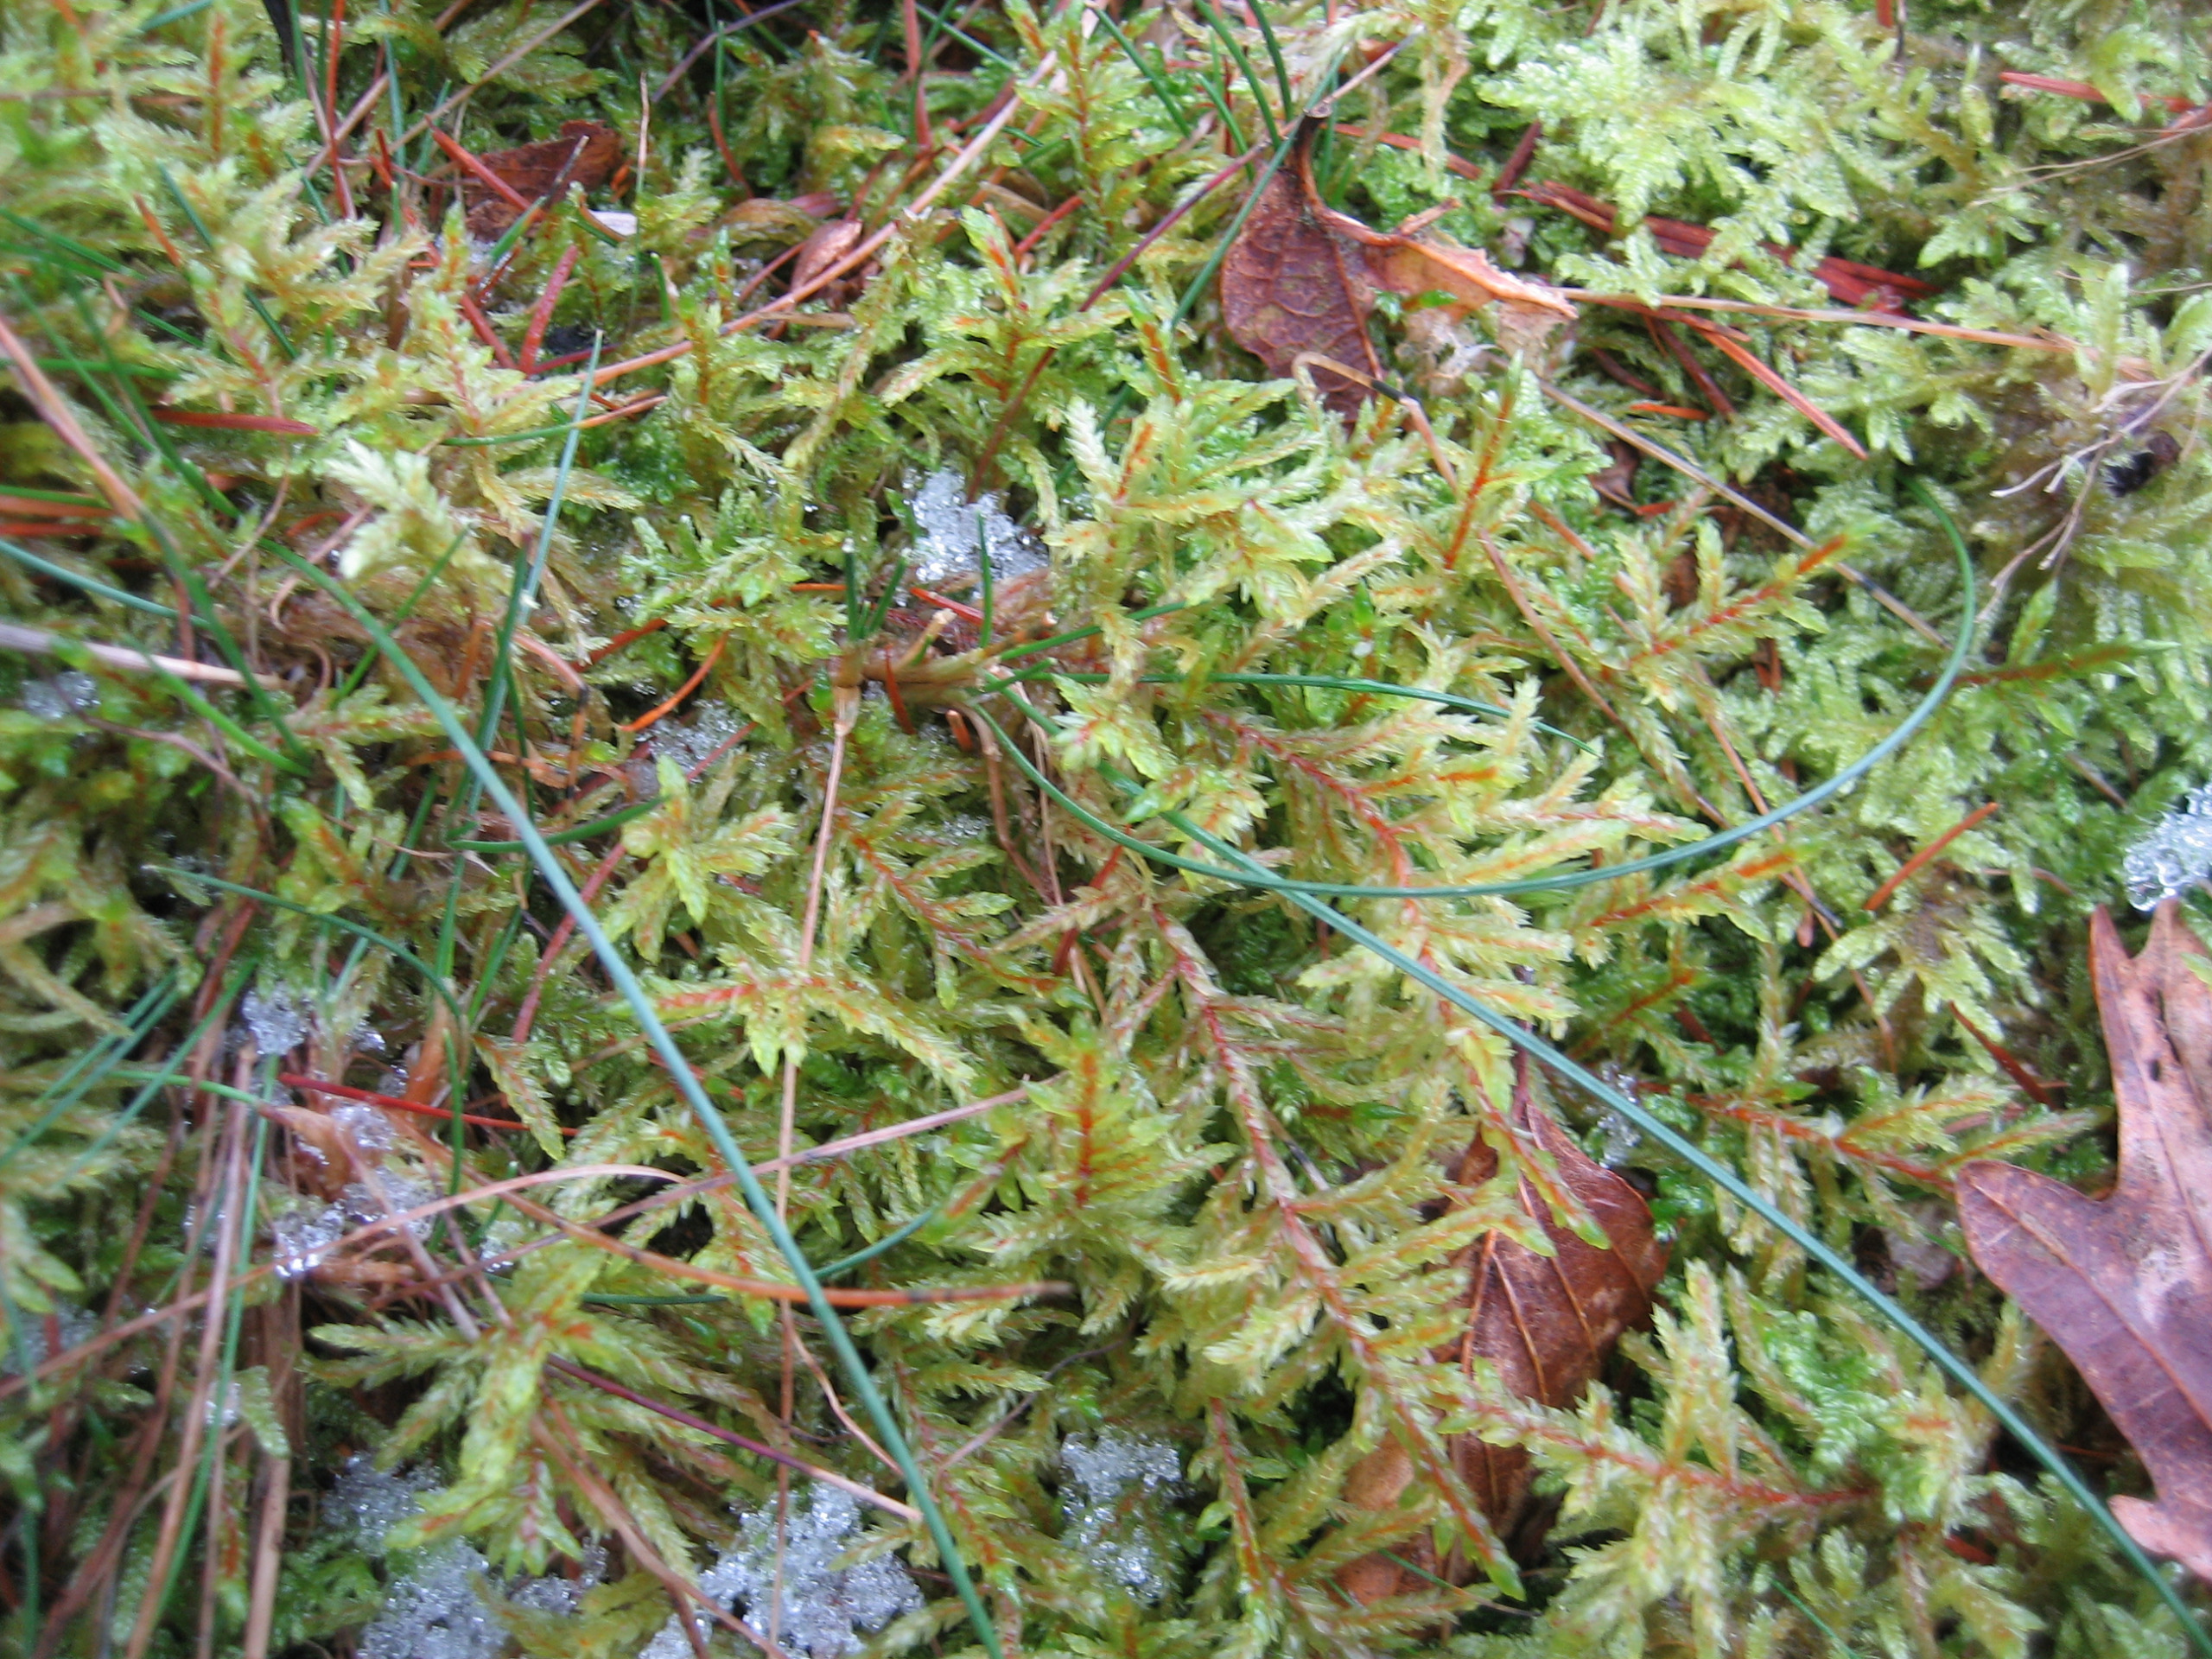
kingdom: Plantae
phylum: Bryophyta
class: Bryopsida
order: Hypnales
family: Hylocomiaceae
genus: Pleurozium
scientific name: Pleurozium schreberi
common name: Trind fyrremos
